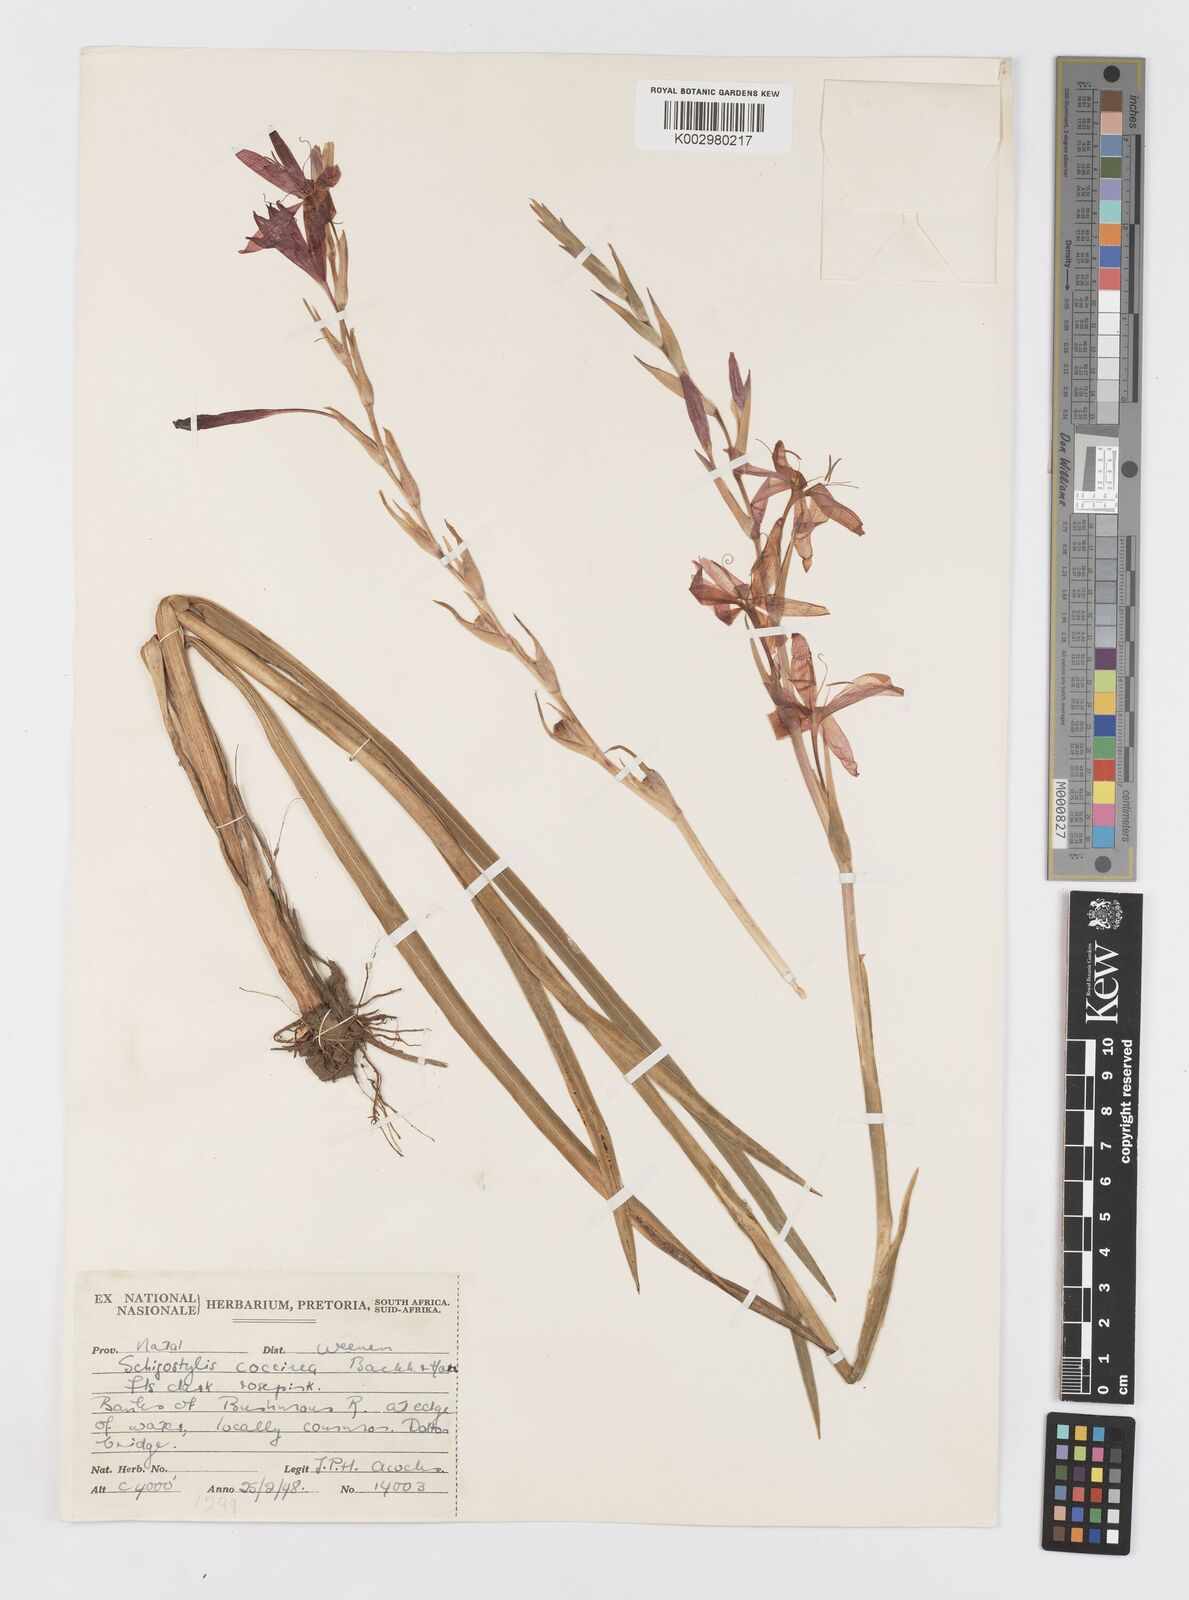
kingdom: Plantae
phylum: Tracheophyta
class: Liliopsida
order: Asparagales
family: Iridaceae
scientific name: Iridaceae
